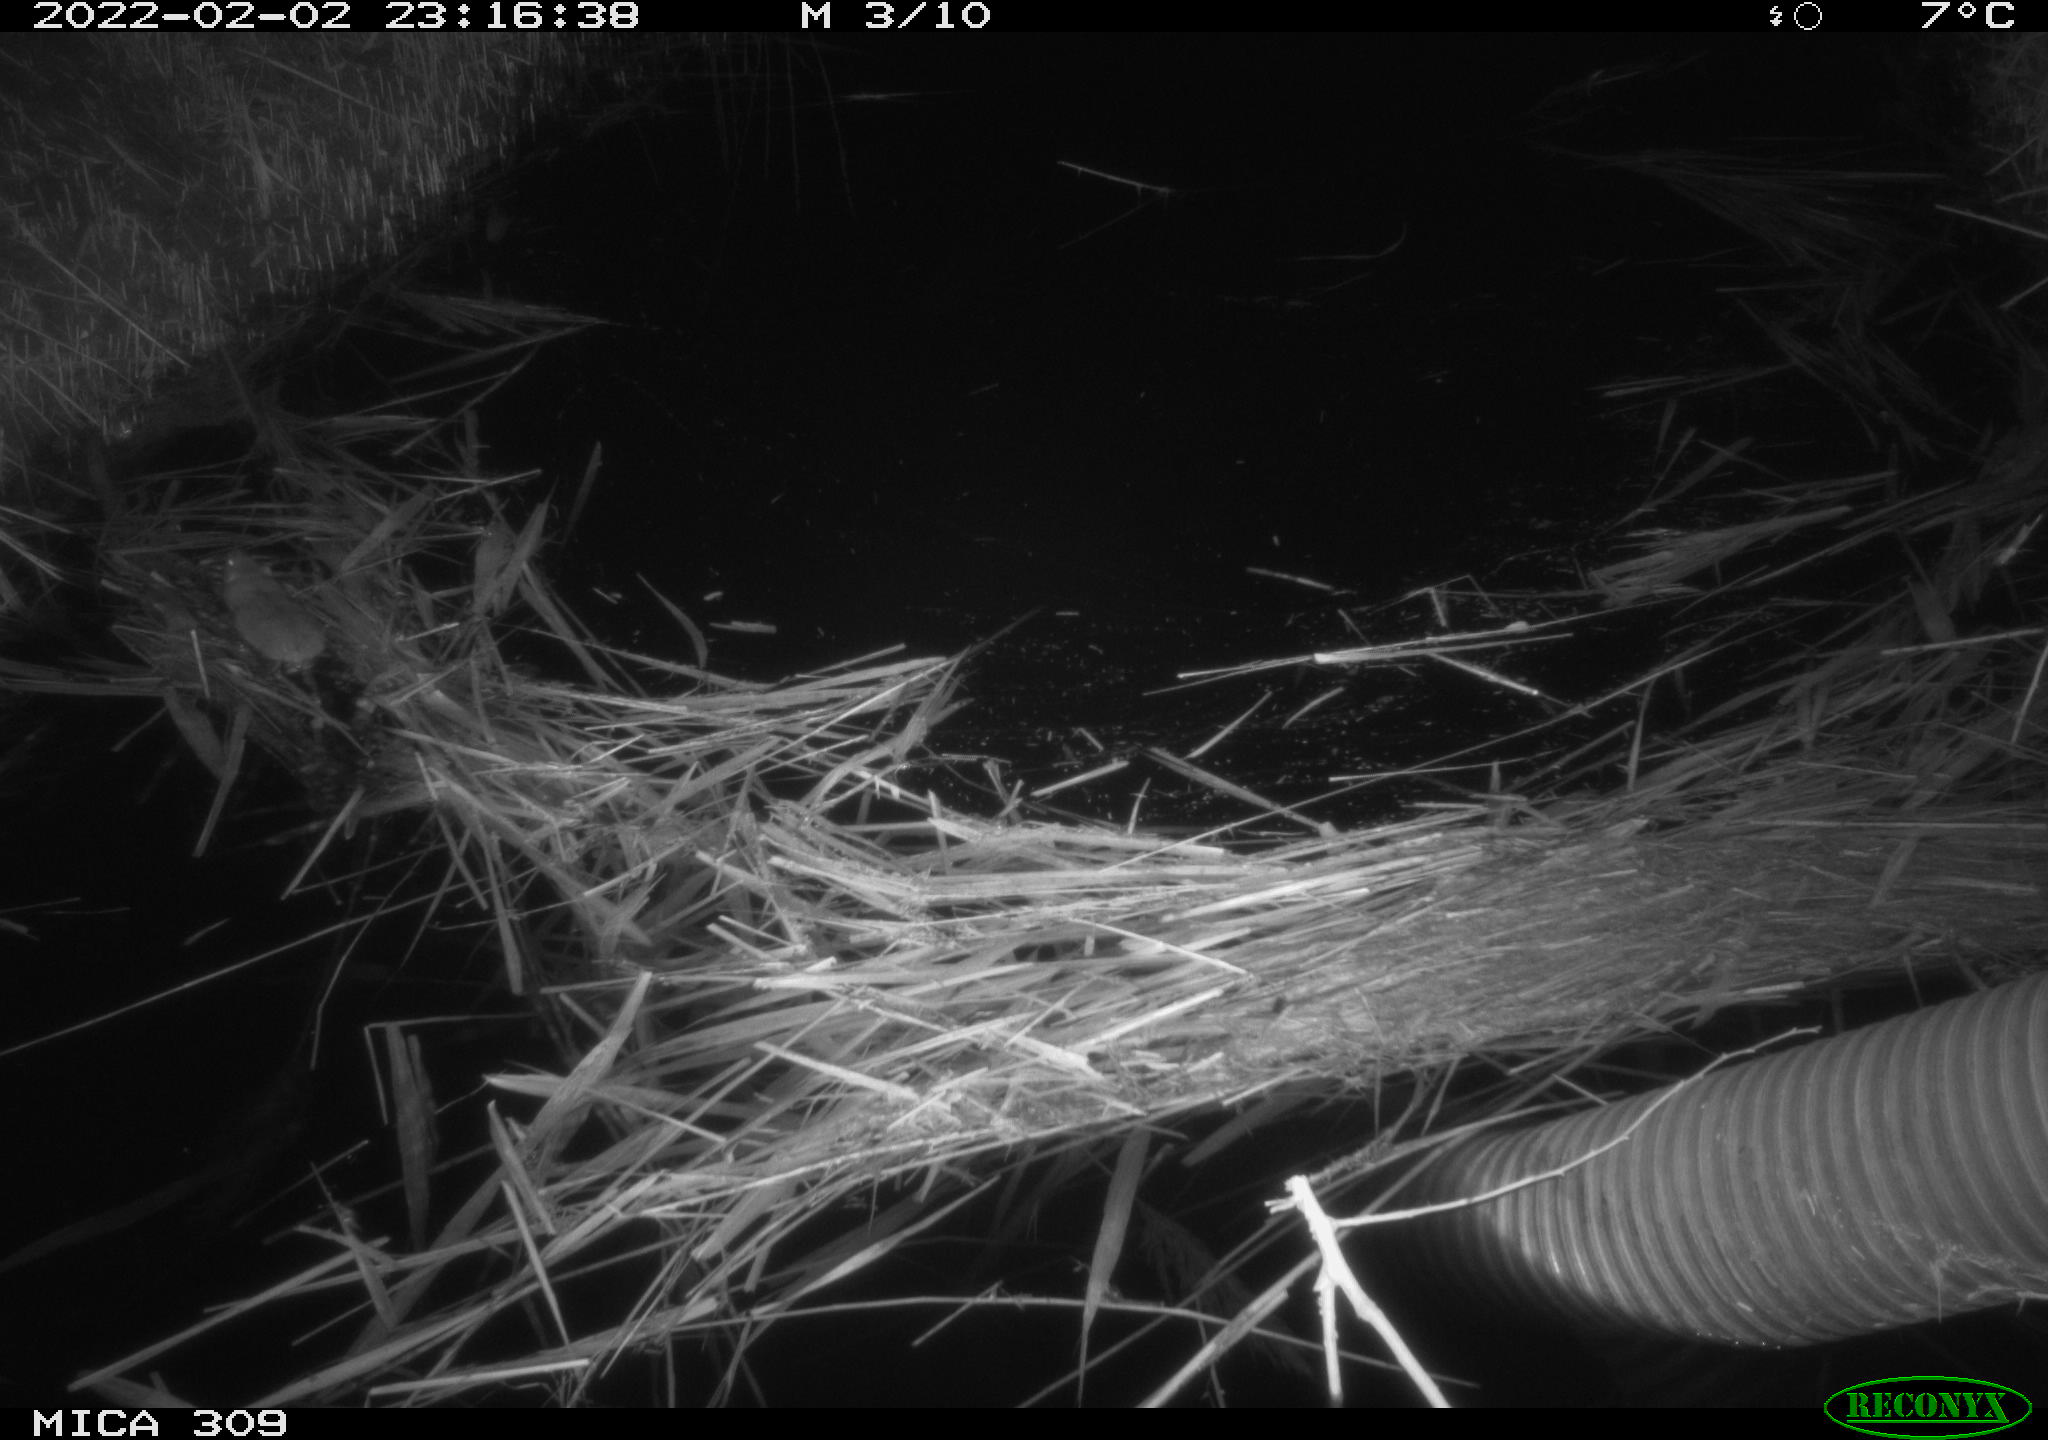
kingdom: Animalia
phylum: Chordata
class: Mammalia
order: Rodentia
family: Muridae
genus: Rattus
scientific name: Rattus norvegicus
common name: Brown rat
